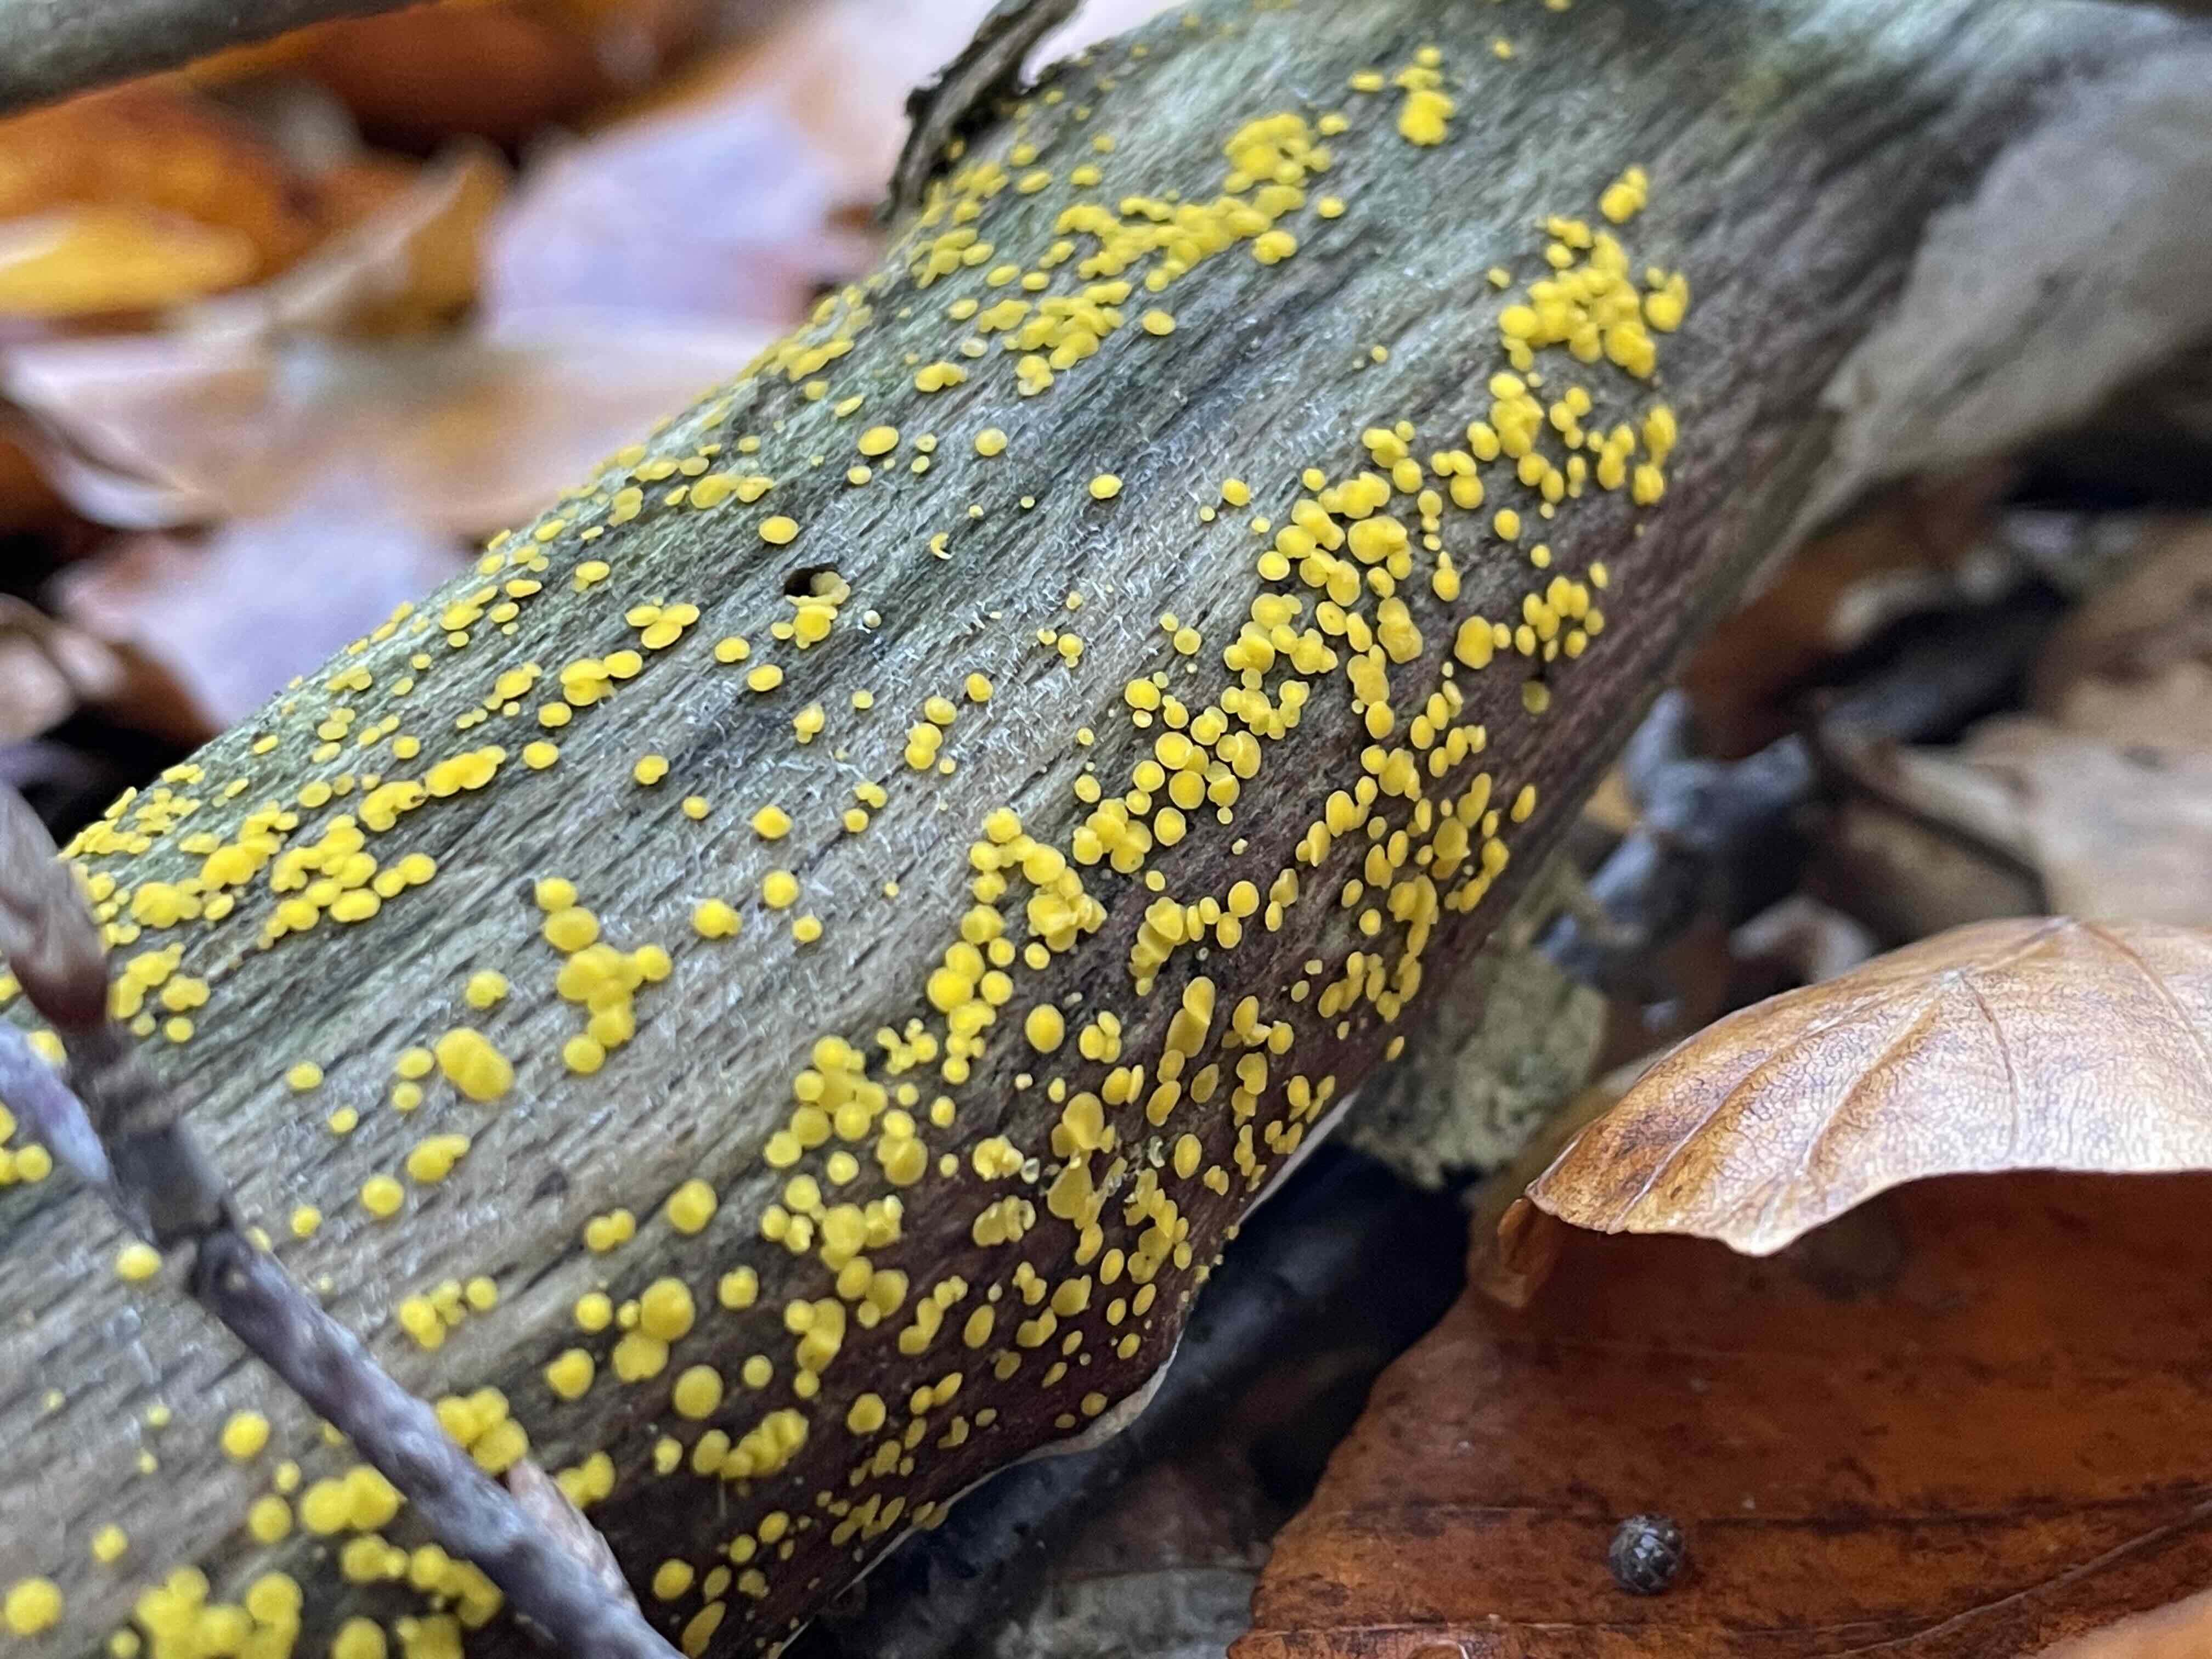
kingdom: Fungi
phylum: Ascomycota
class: Leotiomycetes
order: Helotiales
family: Pezizellaceae
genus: Calycina
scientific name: Calycina citrina
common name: almindelig gulskive
